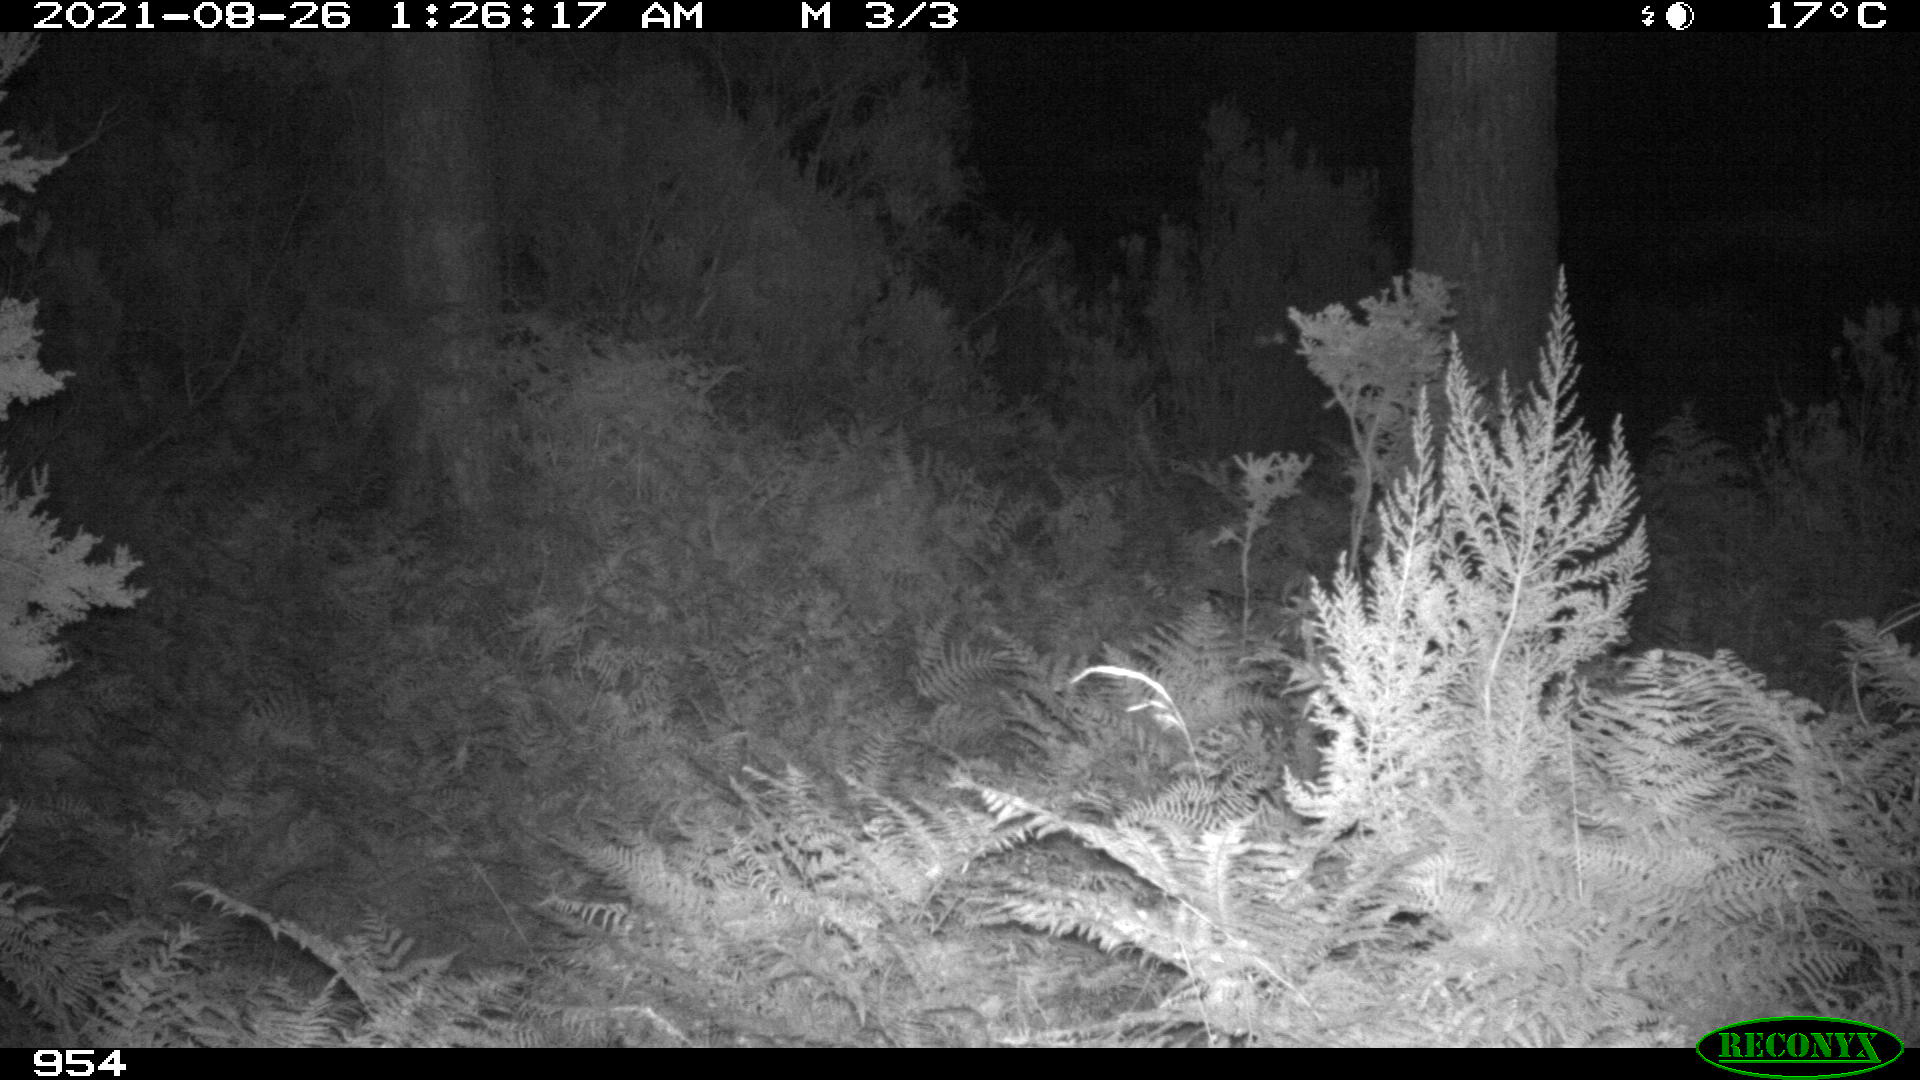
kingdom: Animalia
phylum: Chordata
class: Mammalia
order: Artiodactyla
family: Cervidae
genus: Capreolus
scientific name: Capreolus capreolus
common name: Western roe deer
